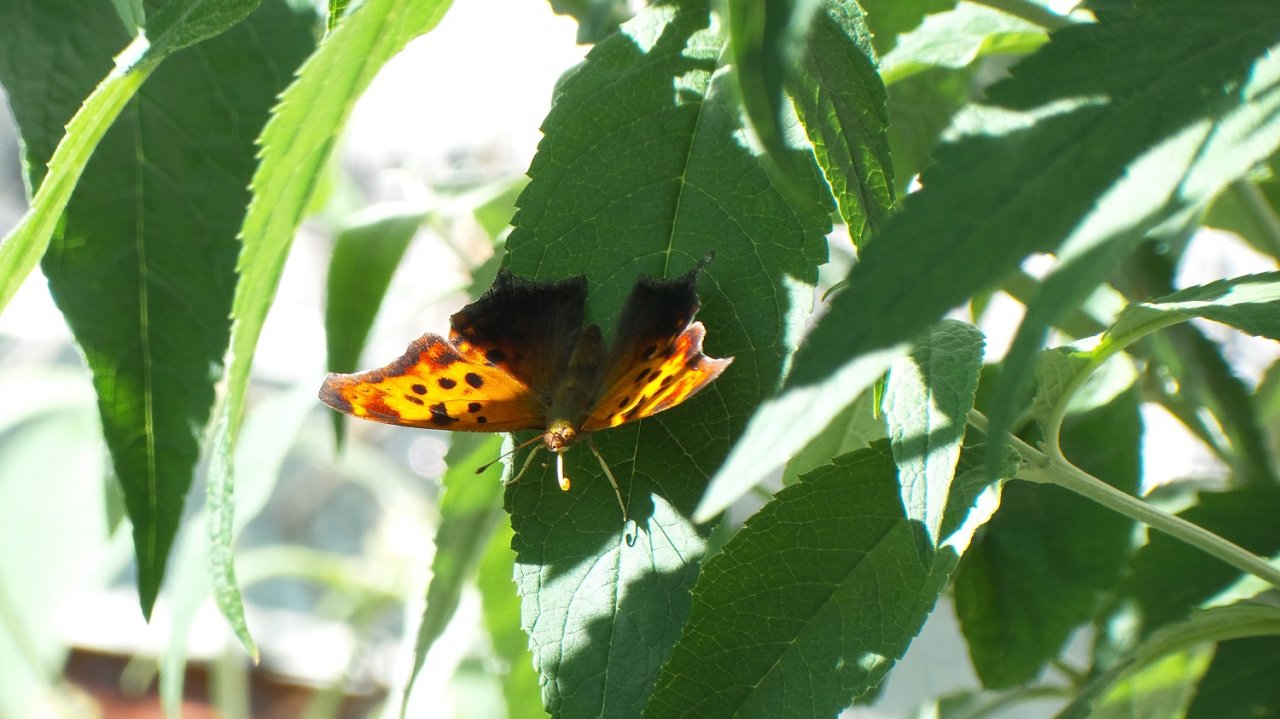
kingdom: Animalia
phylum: Arthropoda
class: Insecta
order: Lepidoptera
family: Nymphalidae
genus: Polygonia
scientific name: Polygonia interrogationis
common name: Question Mark
